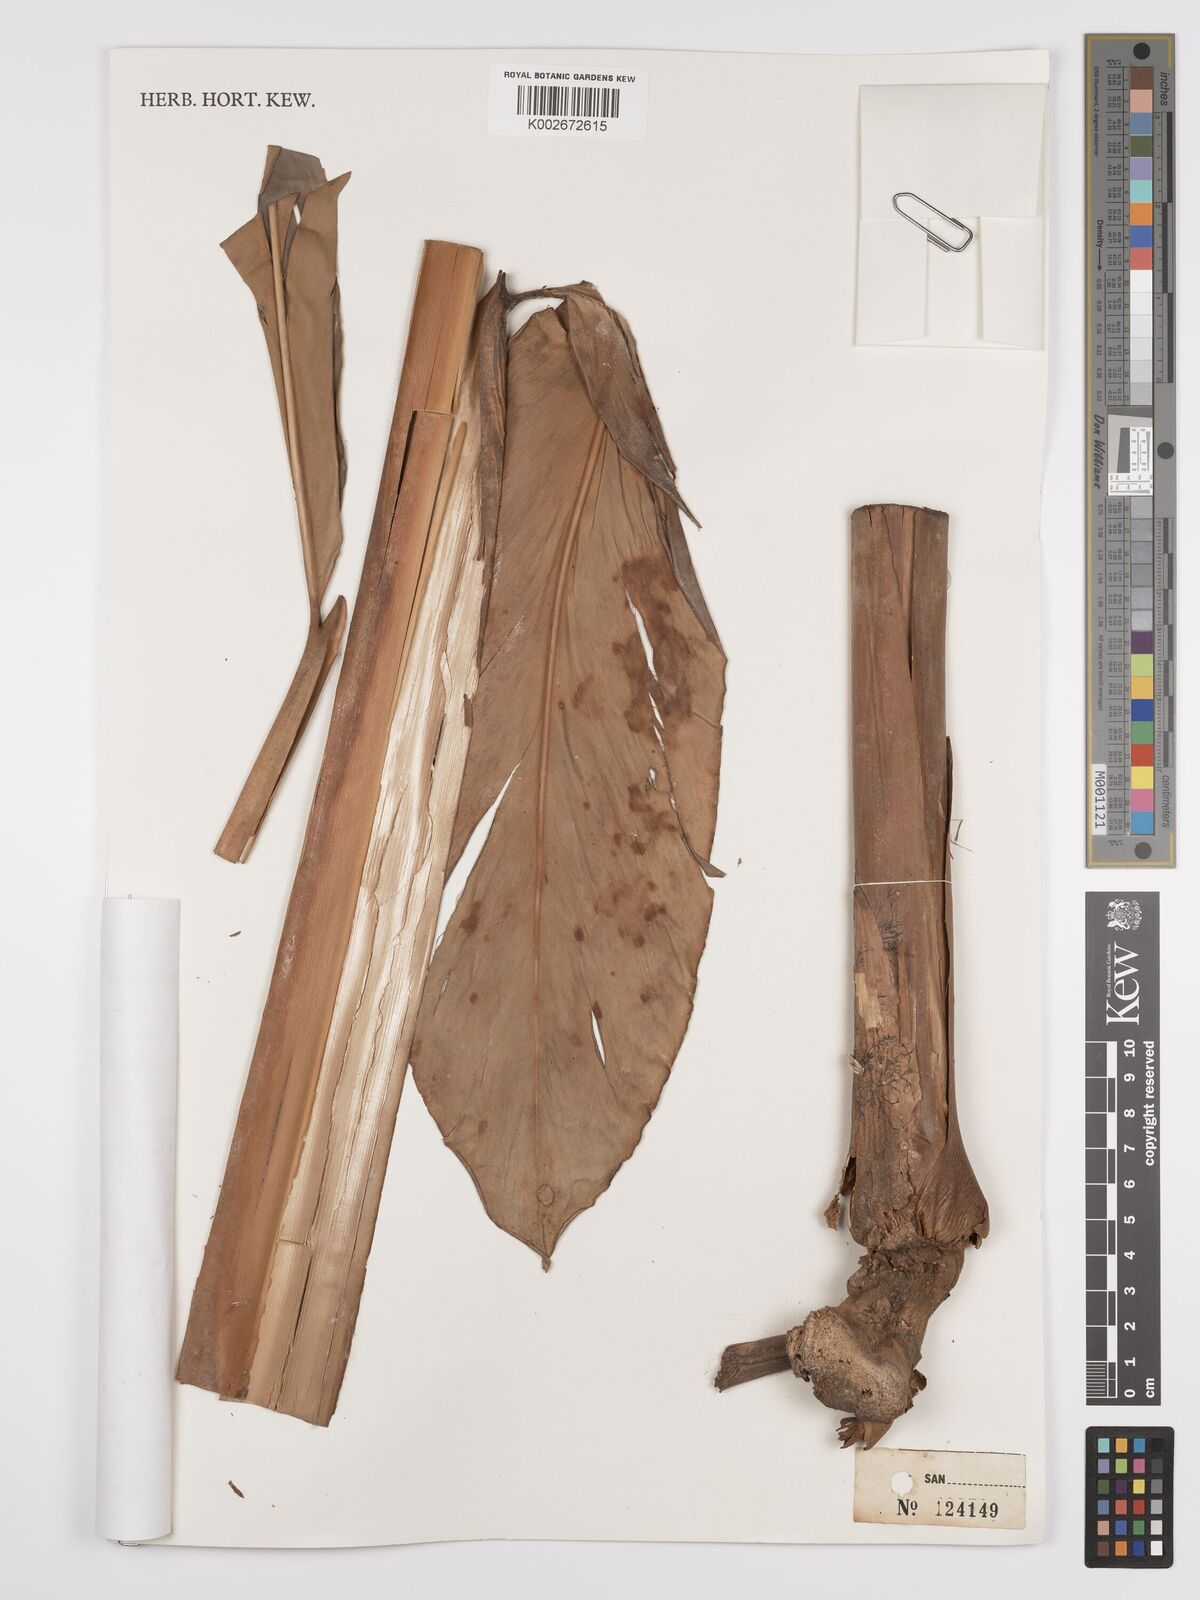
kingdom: Plantae
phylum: Tracheophyta
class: Liliopsida
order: Zingiberales
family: Zingiberaceae
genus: Etlingera
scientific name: Etlingera
